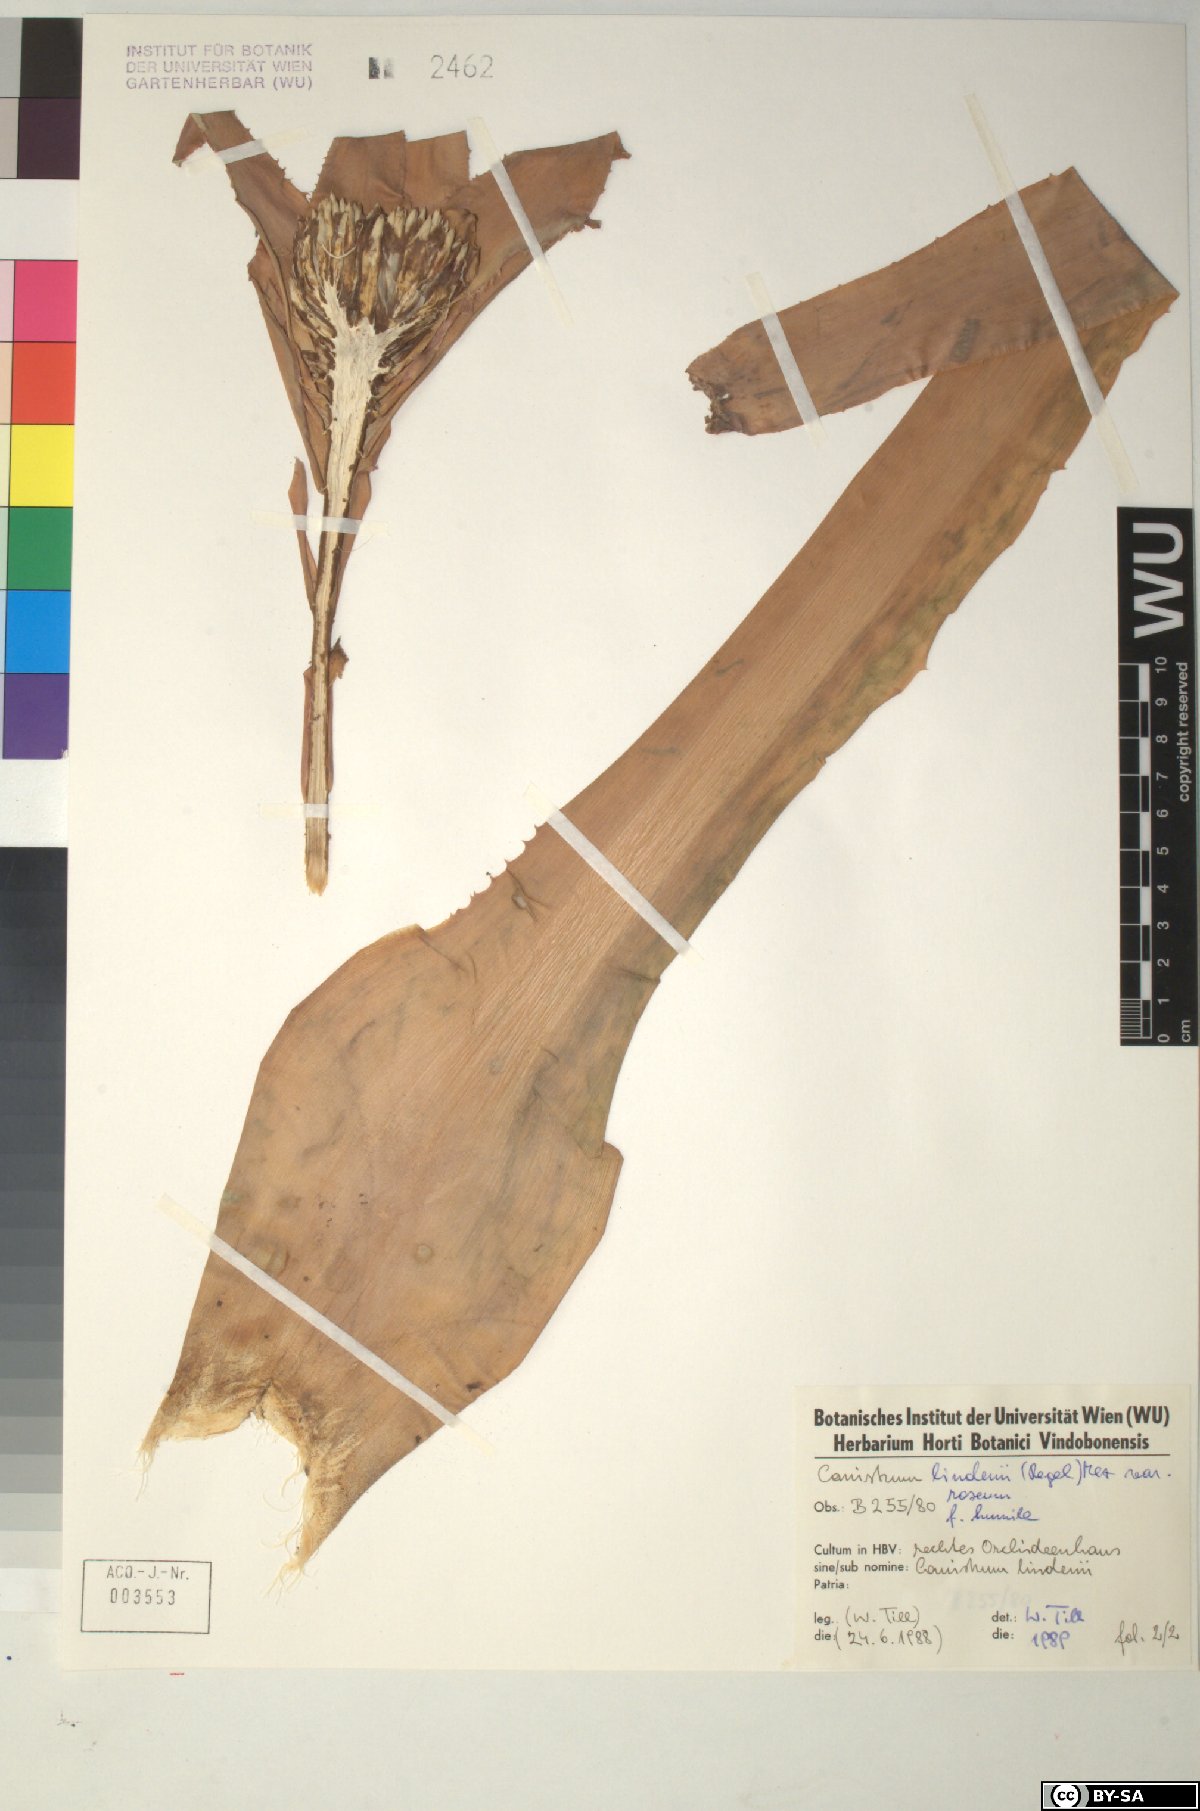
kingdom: Plantae
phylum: Tracheophyta
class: Liliopsida
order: Poales
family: Bromeliaceae
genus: Edmundoa
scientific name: Edmundoa lindenii
